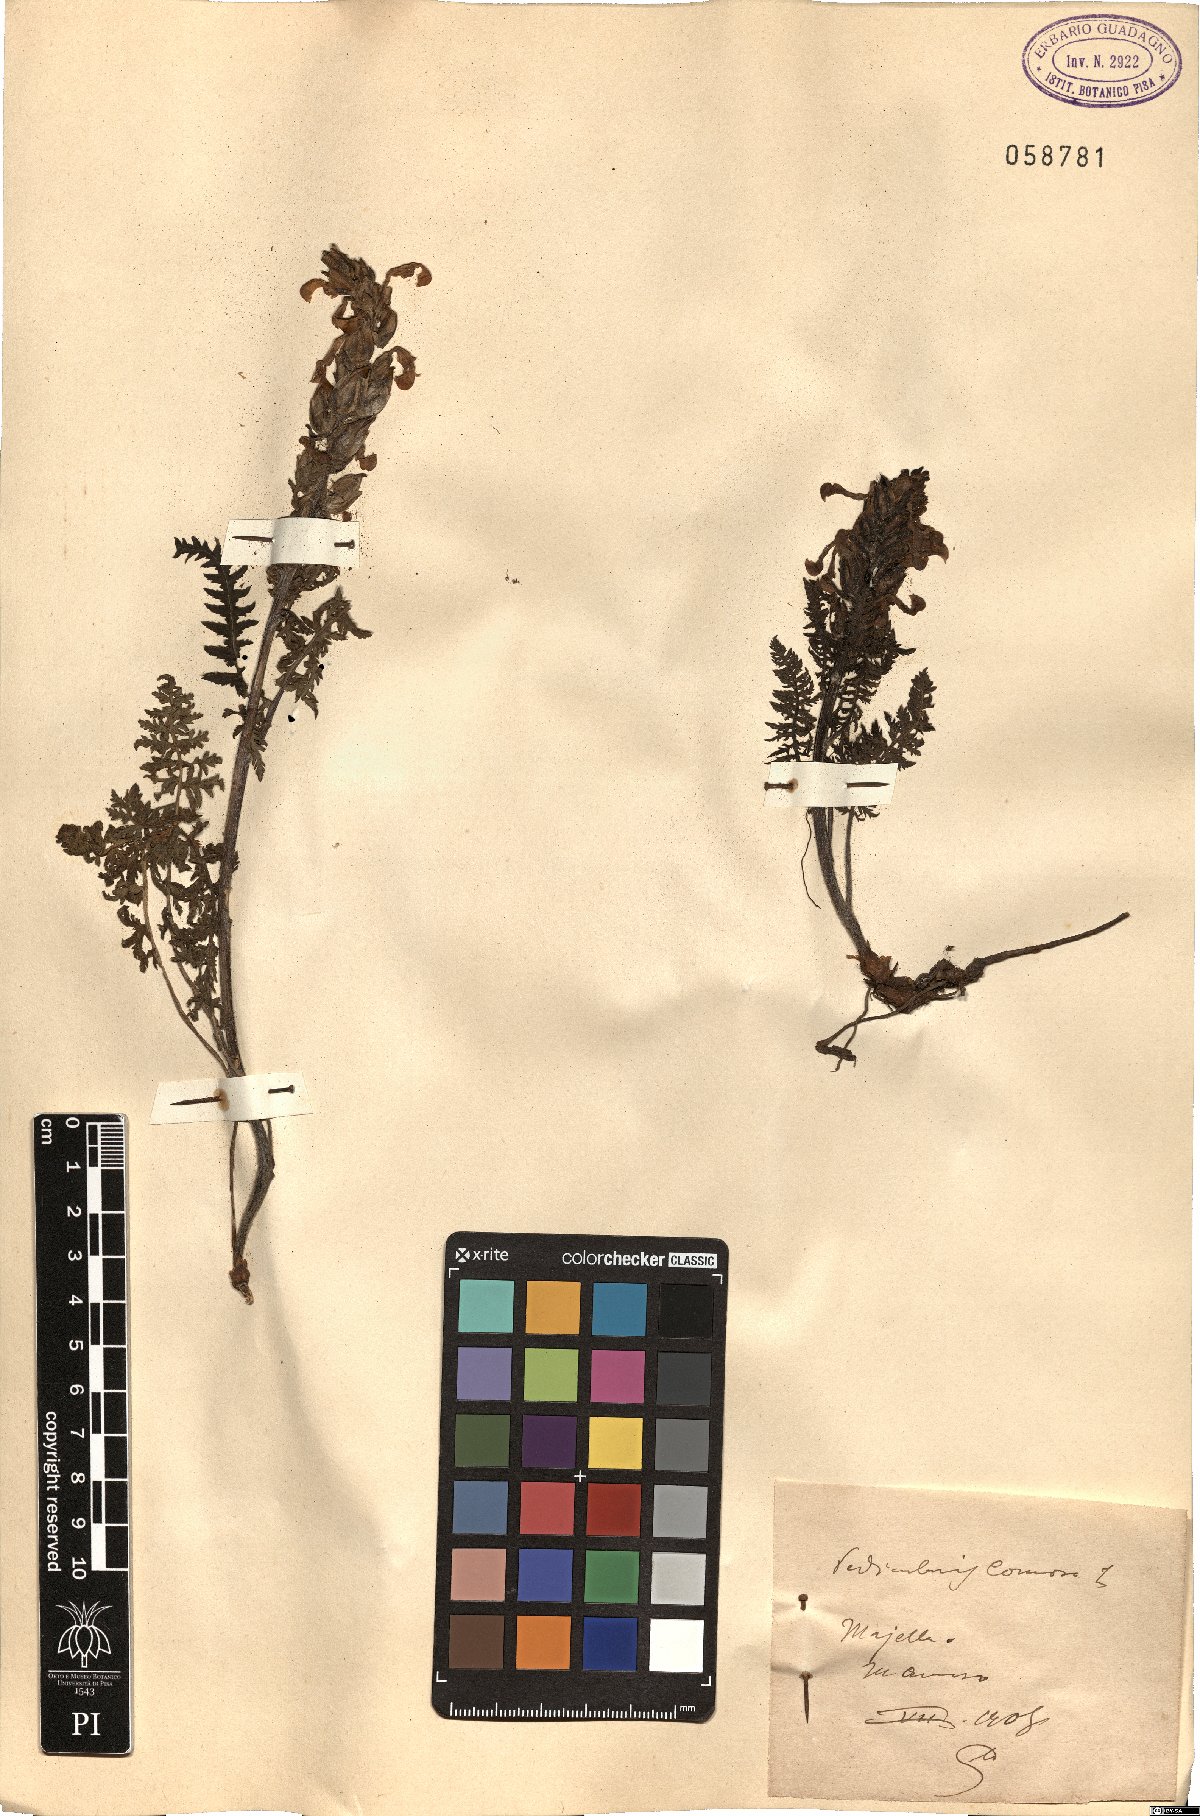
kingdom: Plantae
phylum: Tracheophyta
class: Magnoliopsida
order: Lamiales
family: Orobanchaceae
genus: Pedicularis
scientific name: Pedicularis comosa
